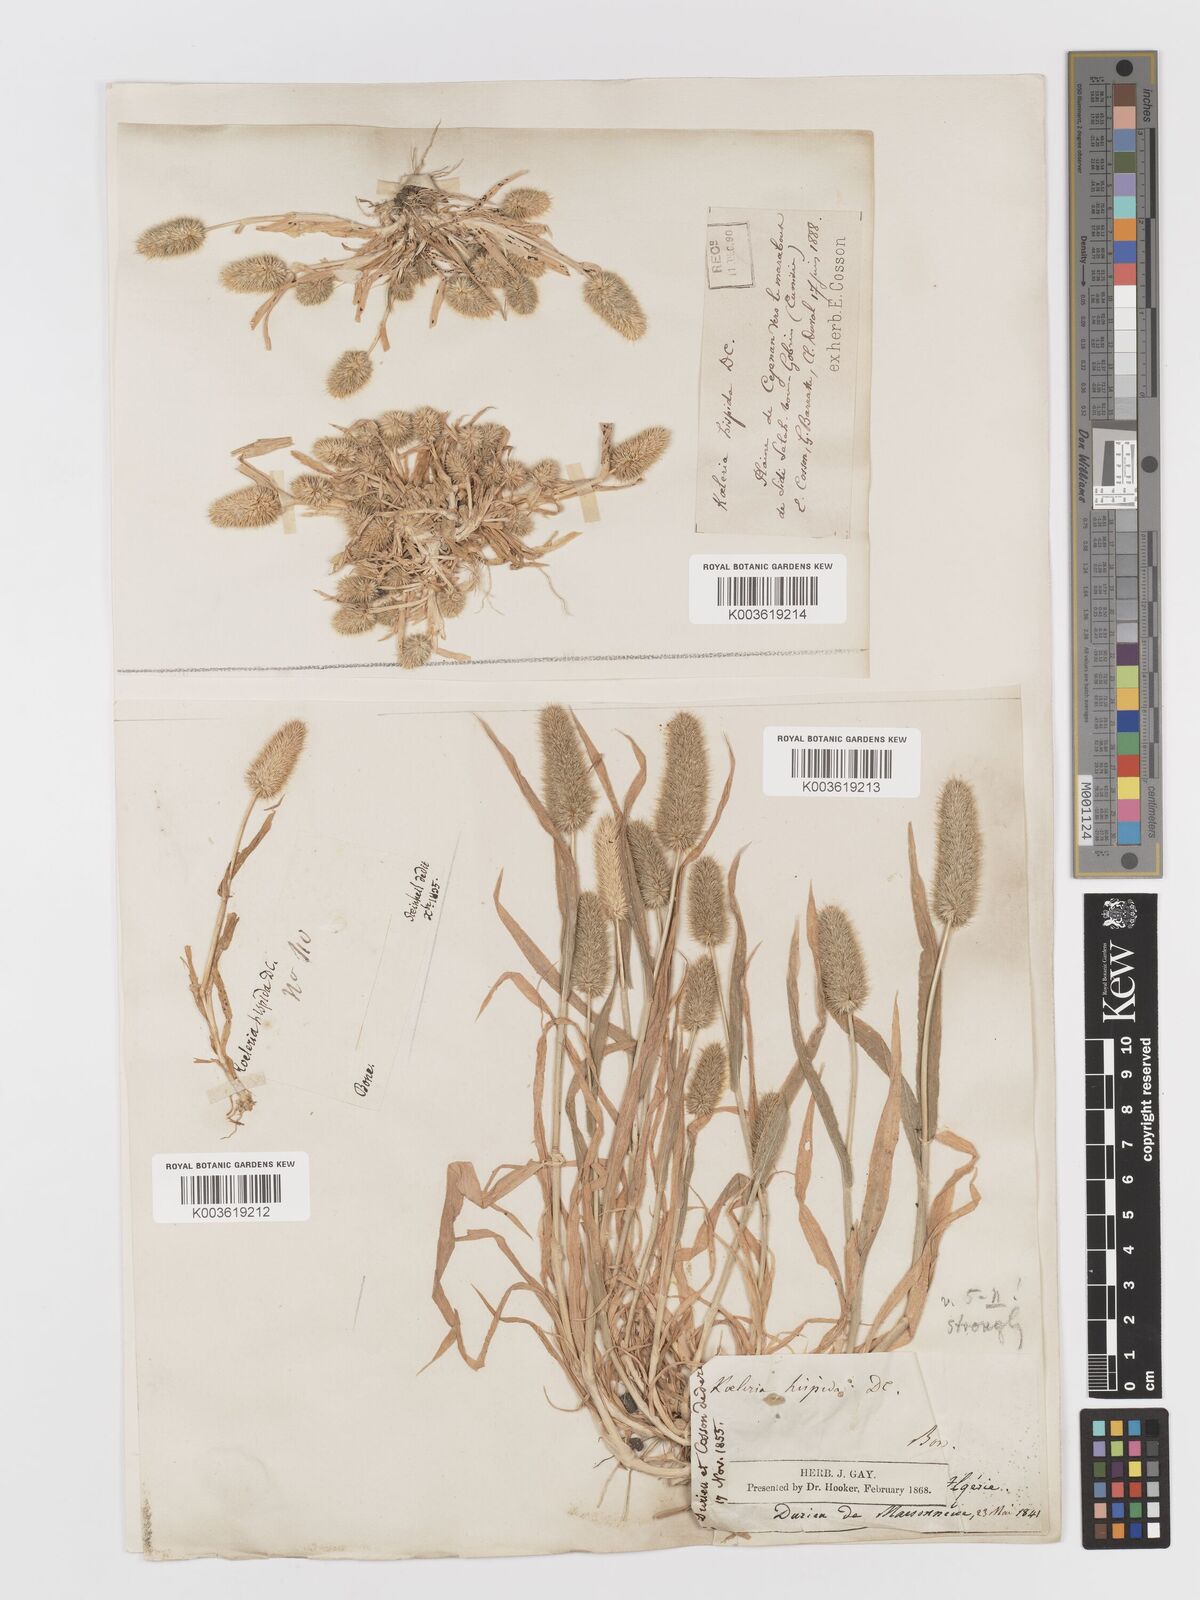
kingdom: Plantae
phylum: Tracheophyta
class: Liliopsida
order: Poales
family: Poaceae
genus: Rostraria
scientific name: Rostraria hispida
